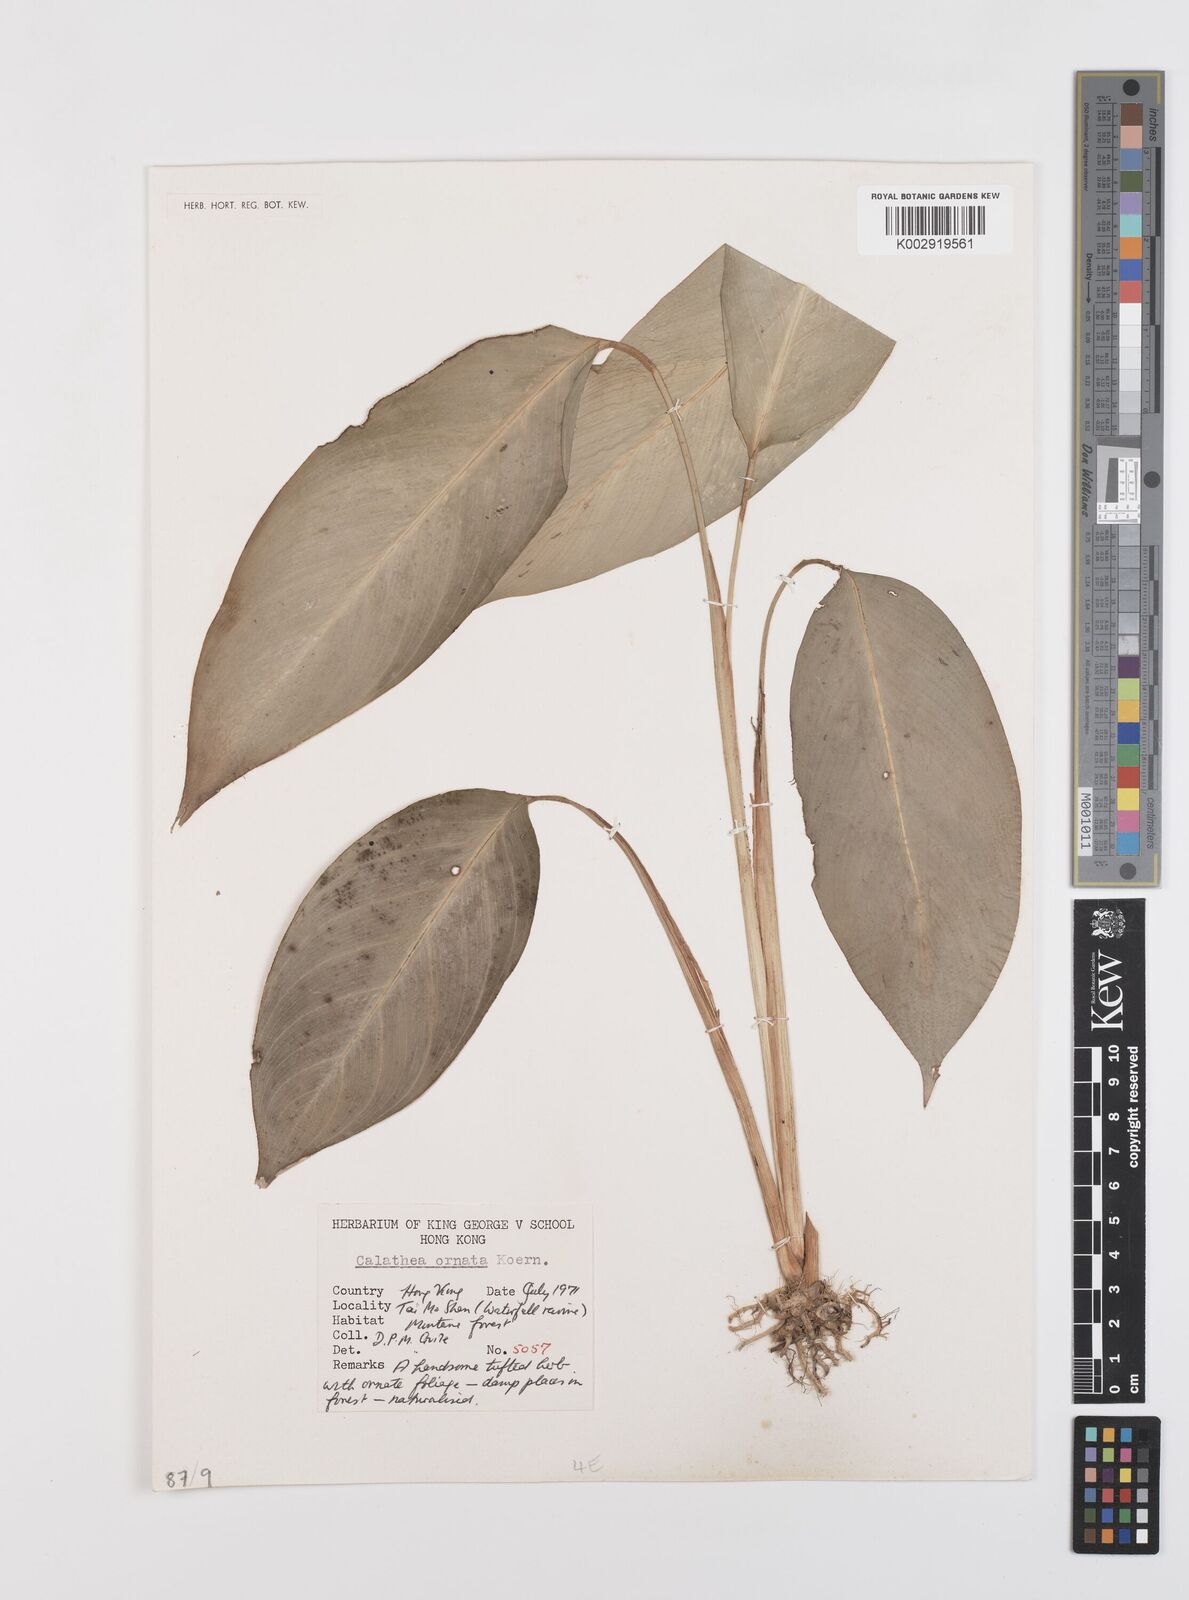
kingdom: Plantae
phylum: Tracheophyta
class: Liliopsida
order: Zingiberales
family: Marantaceae
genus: Goeppertia
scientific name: Goeppertia ornata
